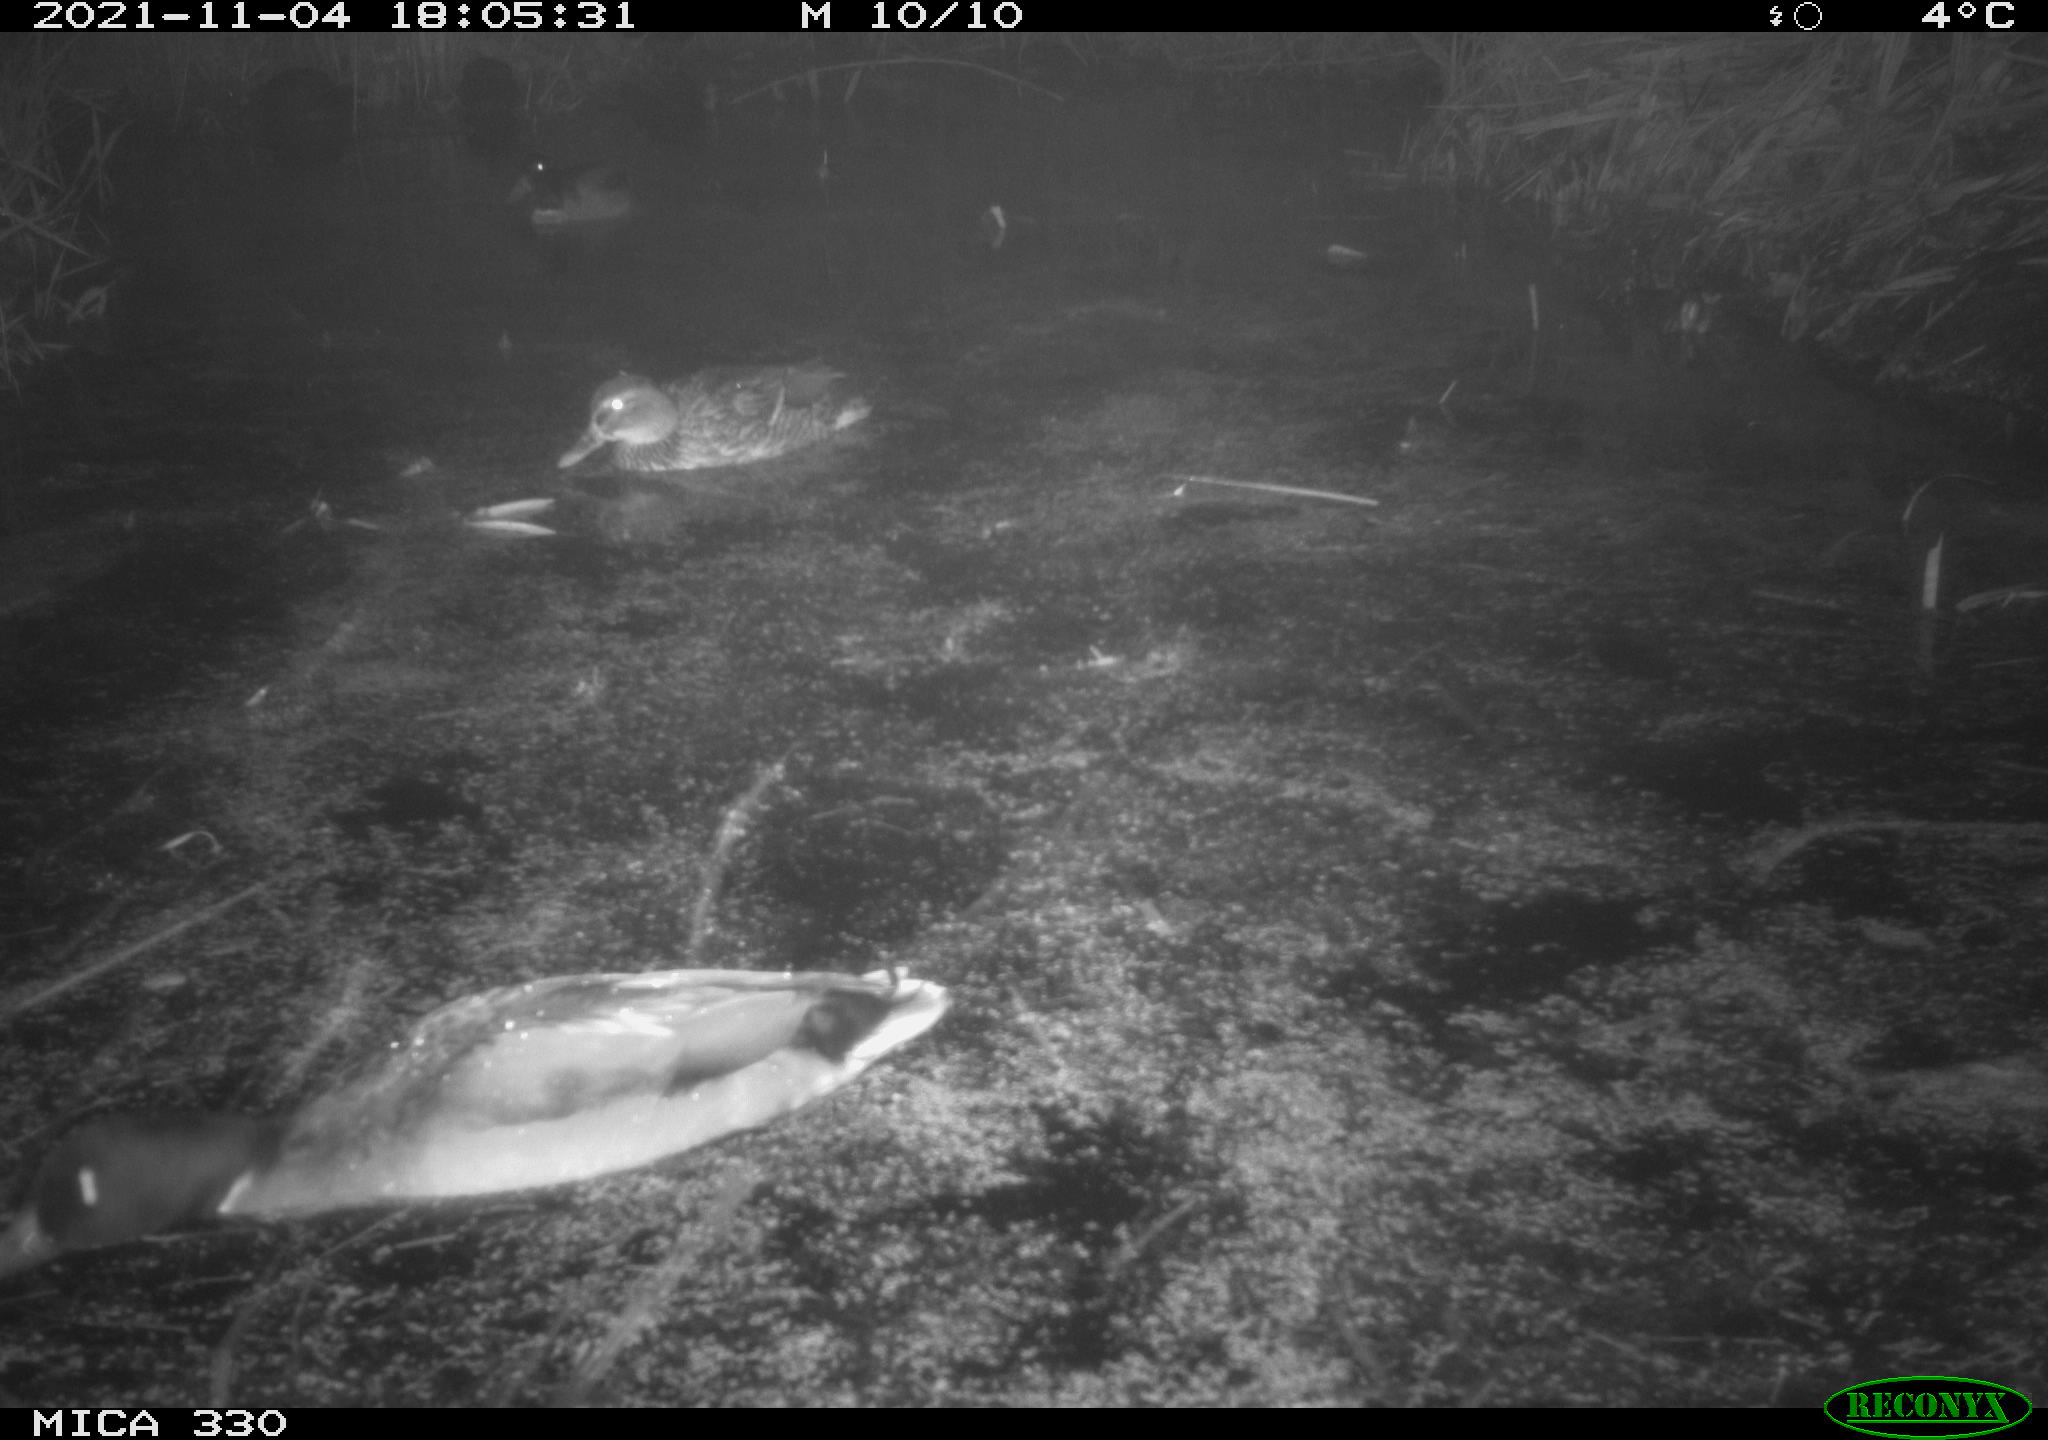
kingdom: Animalia
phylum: Chordata
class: Aves
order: Anseriformes
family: Anatidae
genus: Anas
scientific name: Anas platyrhynchos
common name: Mallard
